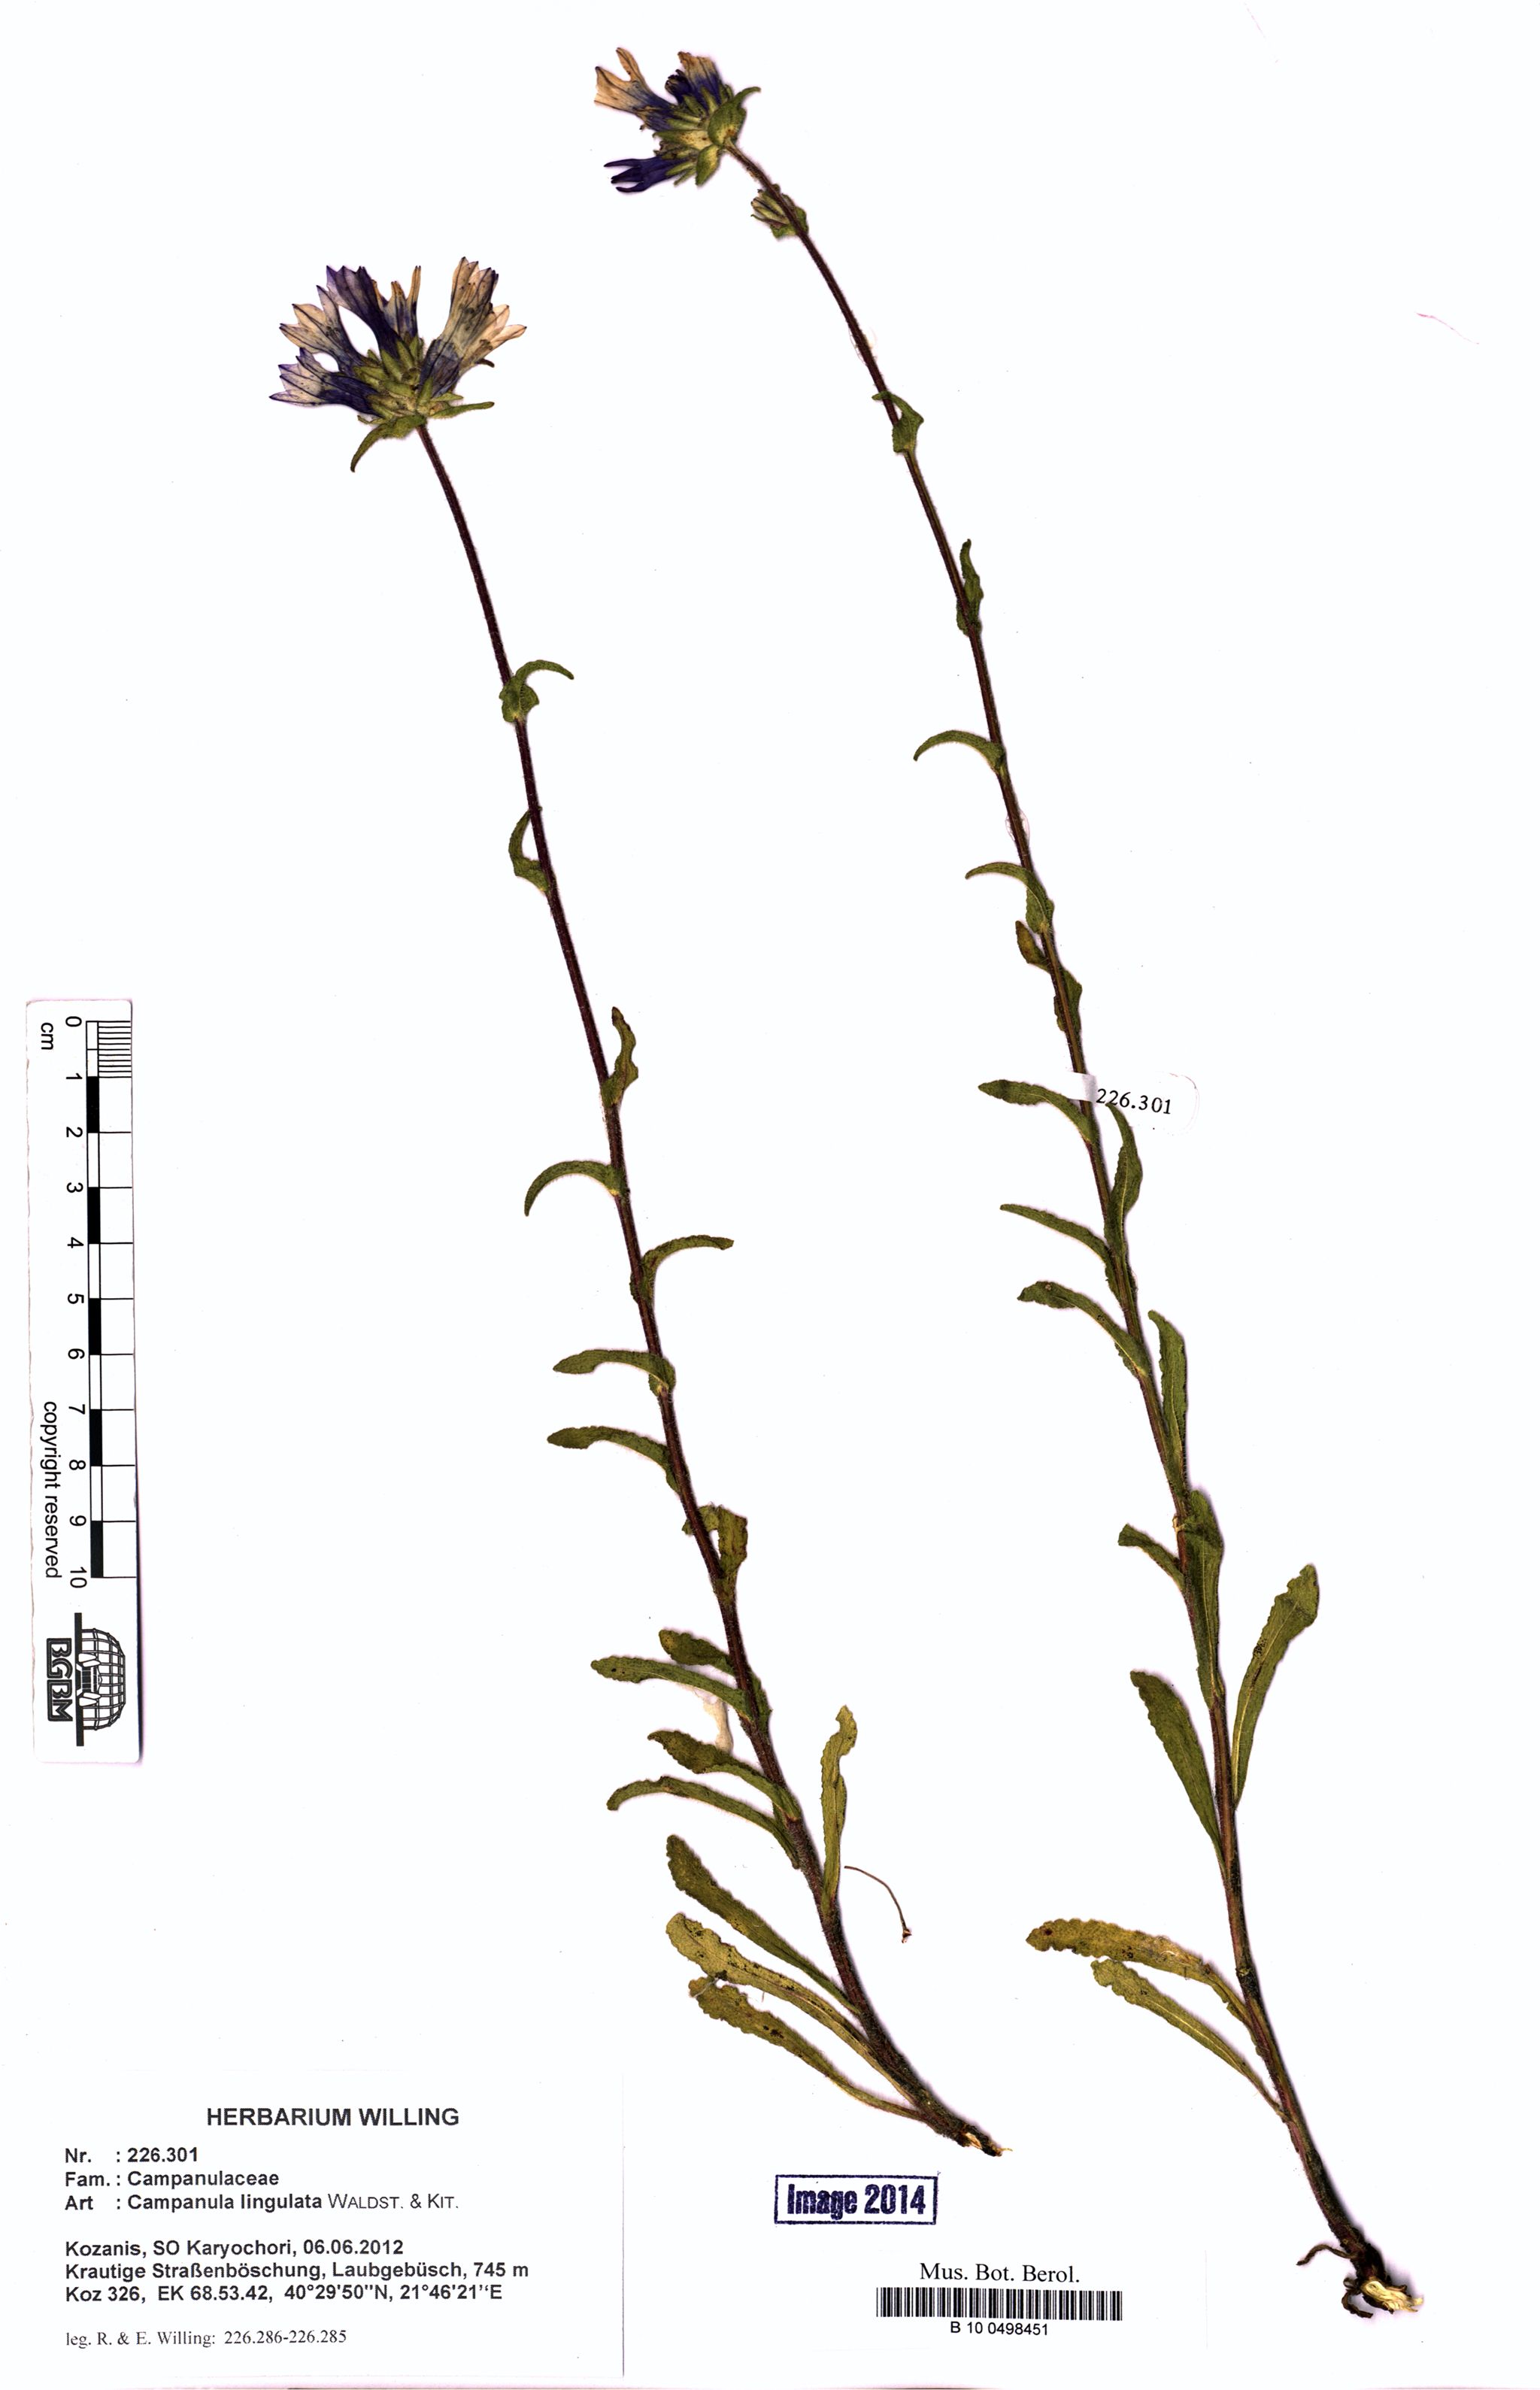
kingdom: Plantae
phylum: Tracheophyta
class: Magnoliopsida
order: Asterales
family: Campanulaceae
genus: Campanula
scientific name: Campanula lingulata
